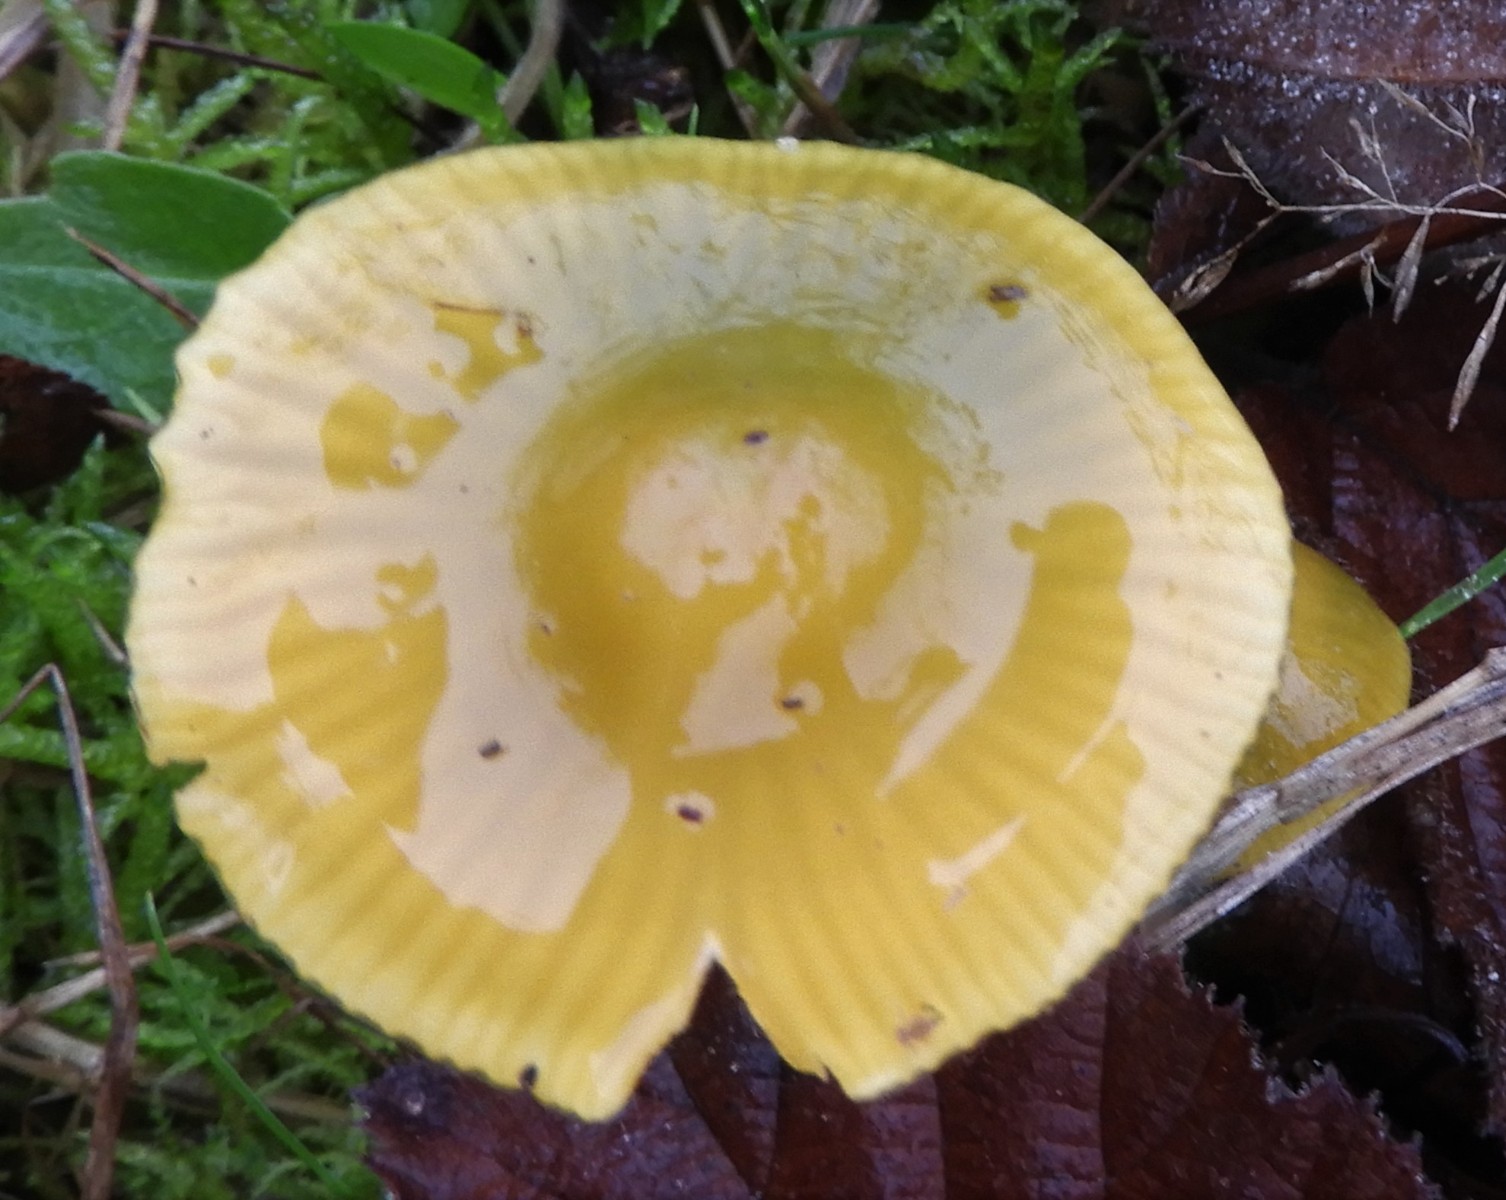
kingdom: Fungi
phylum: Basidiomycota
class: Agaricomycetes
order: Agaricales
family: Hygrophoraceae
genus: Gliophorus
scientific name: Gliophorus psittacinus
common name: papegøje-vokshat
